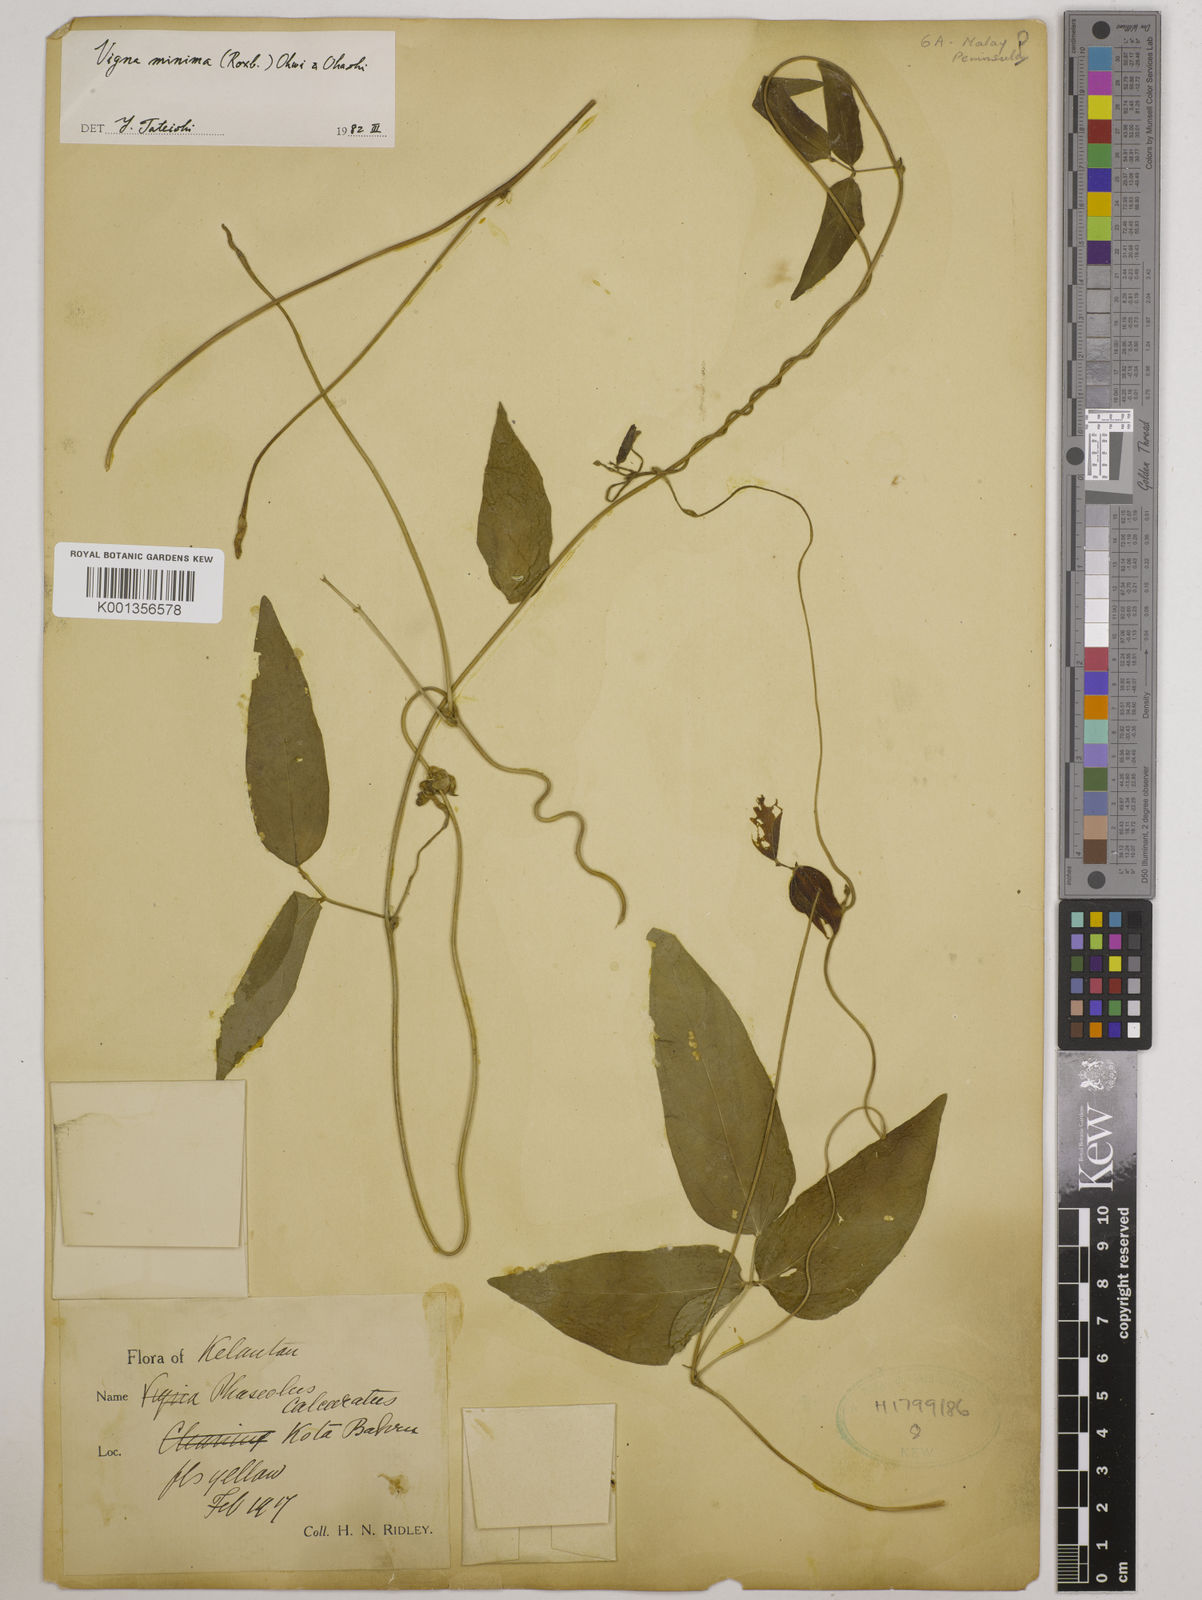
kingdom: Plantae
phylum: Tracheophyta
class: Magnoliopsida
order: Fabales
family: Fabaceae
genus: Vigna
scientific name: Vigna minima
